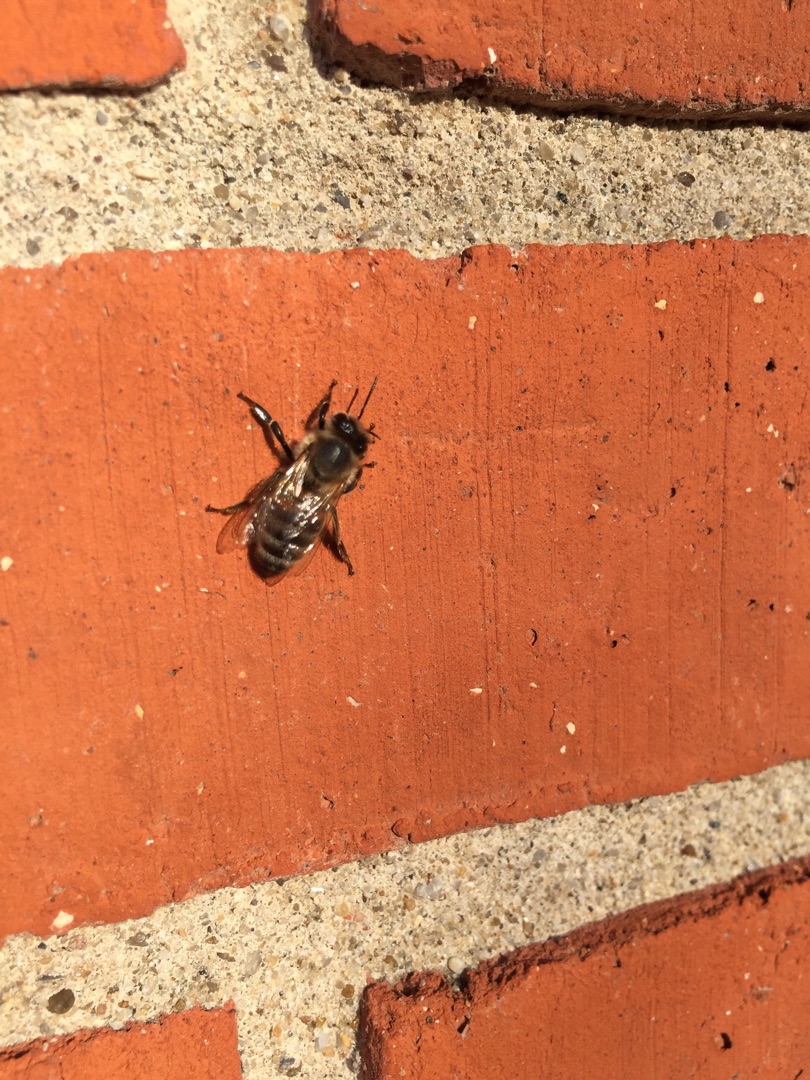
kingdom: Animalia
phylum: Arthropoda
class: Insecta
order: Hymenoptera
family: Apidae
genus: Apis
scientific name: Apis mellifera
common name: Honningbi
